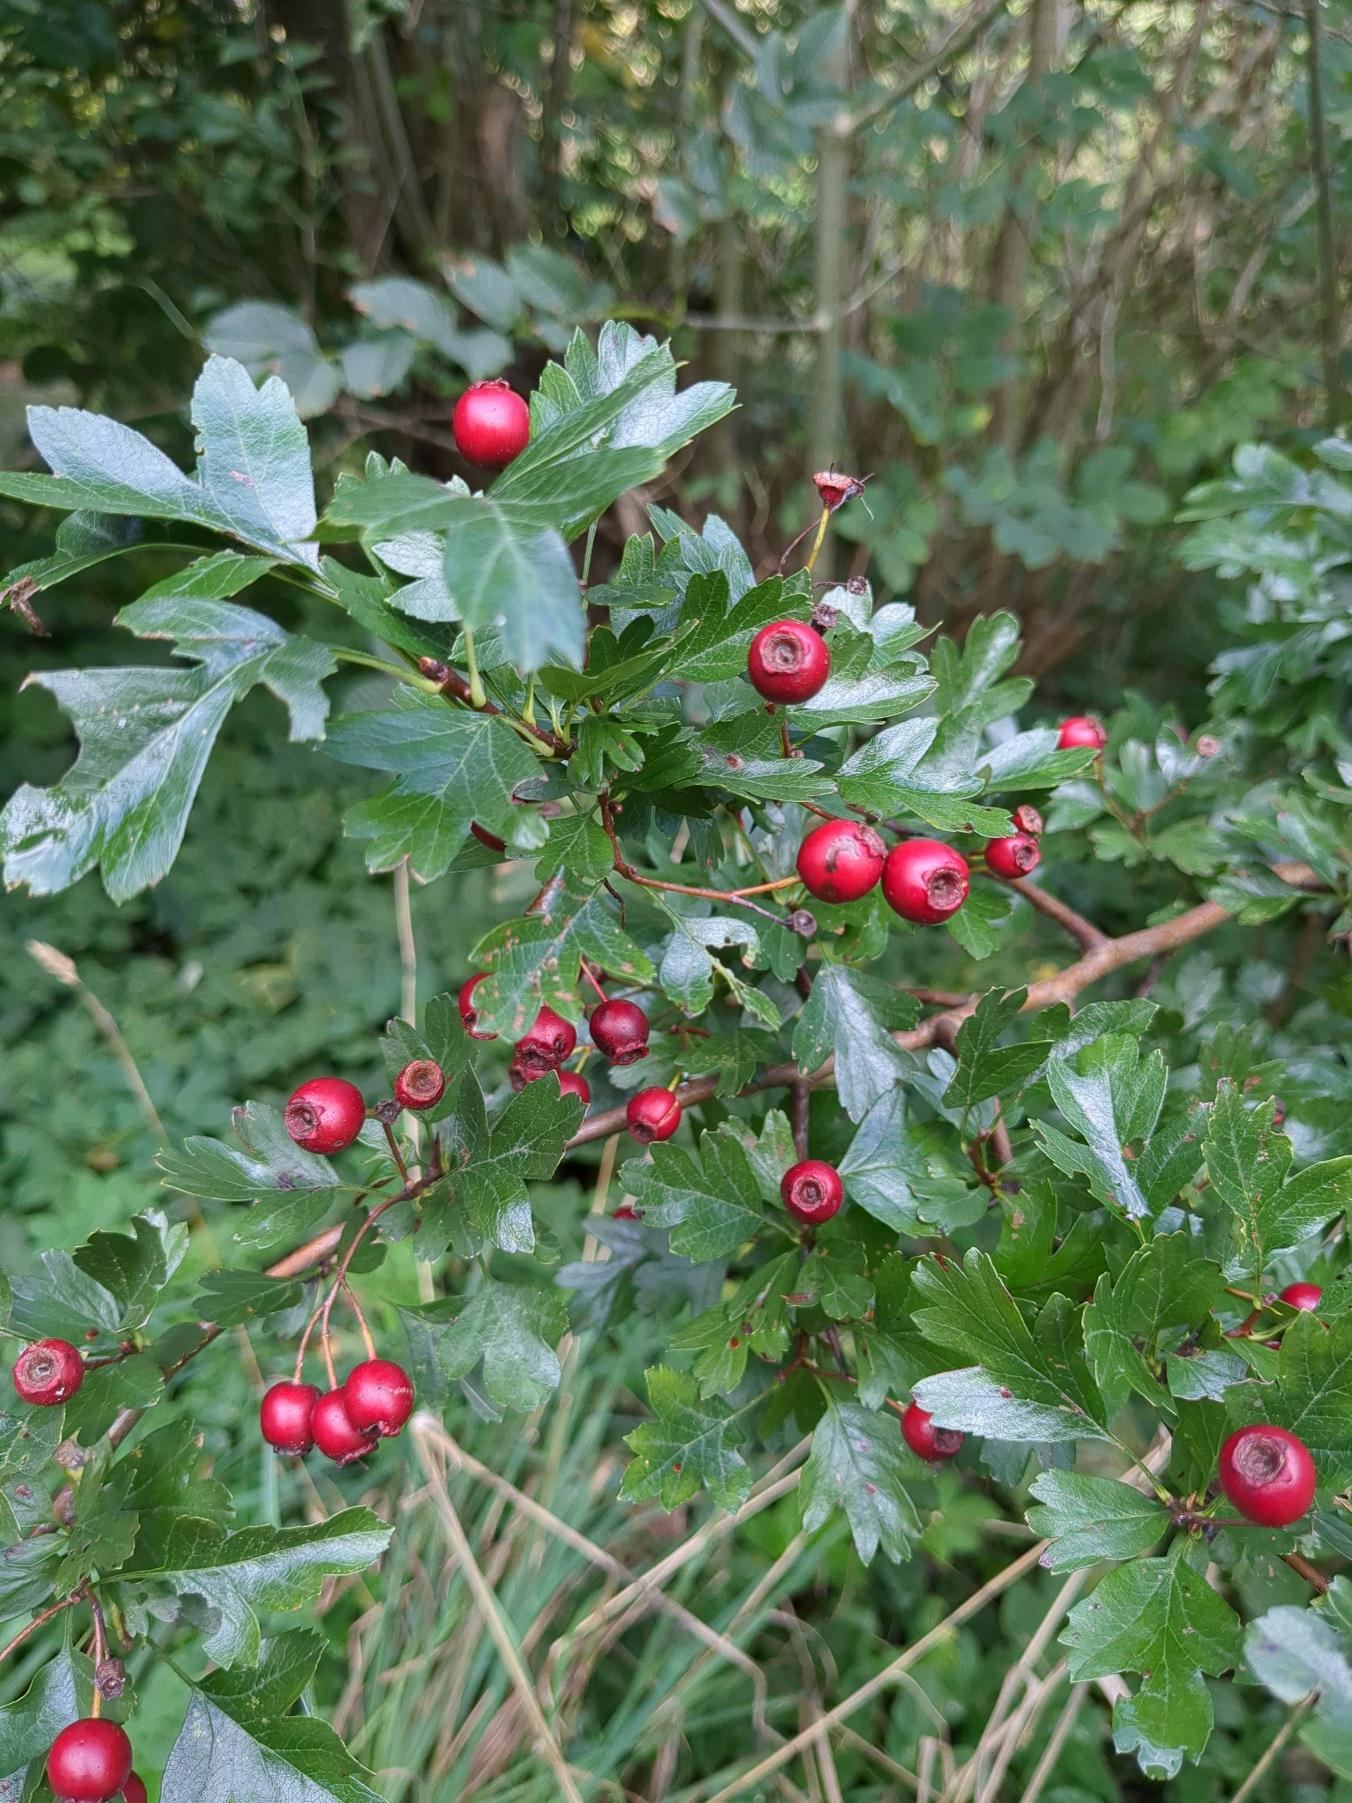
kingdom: Plantae
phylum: Tracheophyta
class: Magnoliopsida
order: Rosales
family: Rosaceae
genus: Crataegus
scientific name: Crataegus monogyna
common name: Engriflet hvidtjørn
